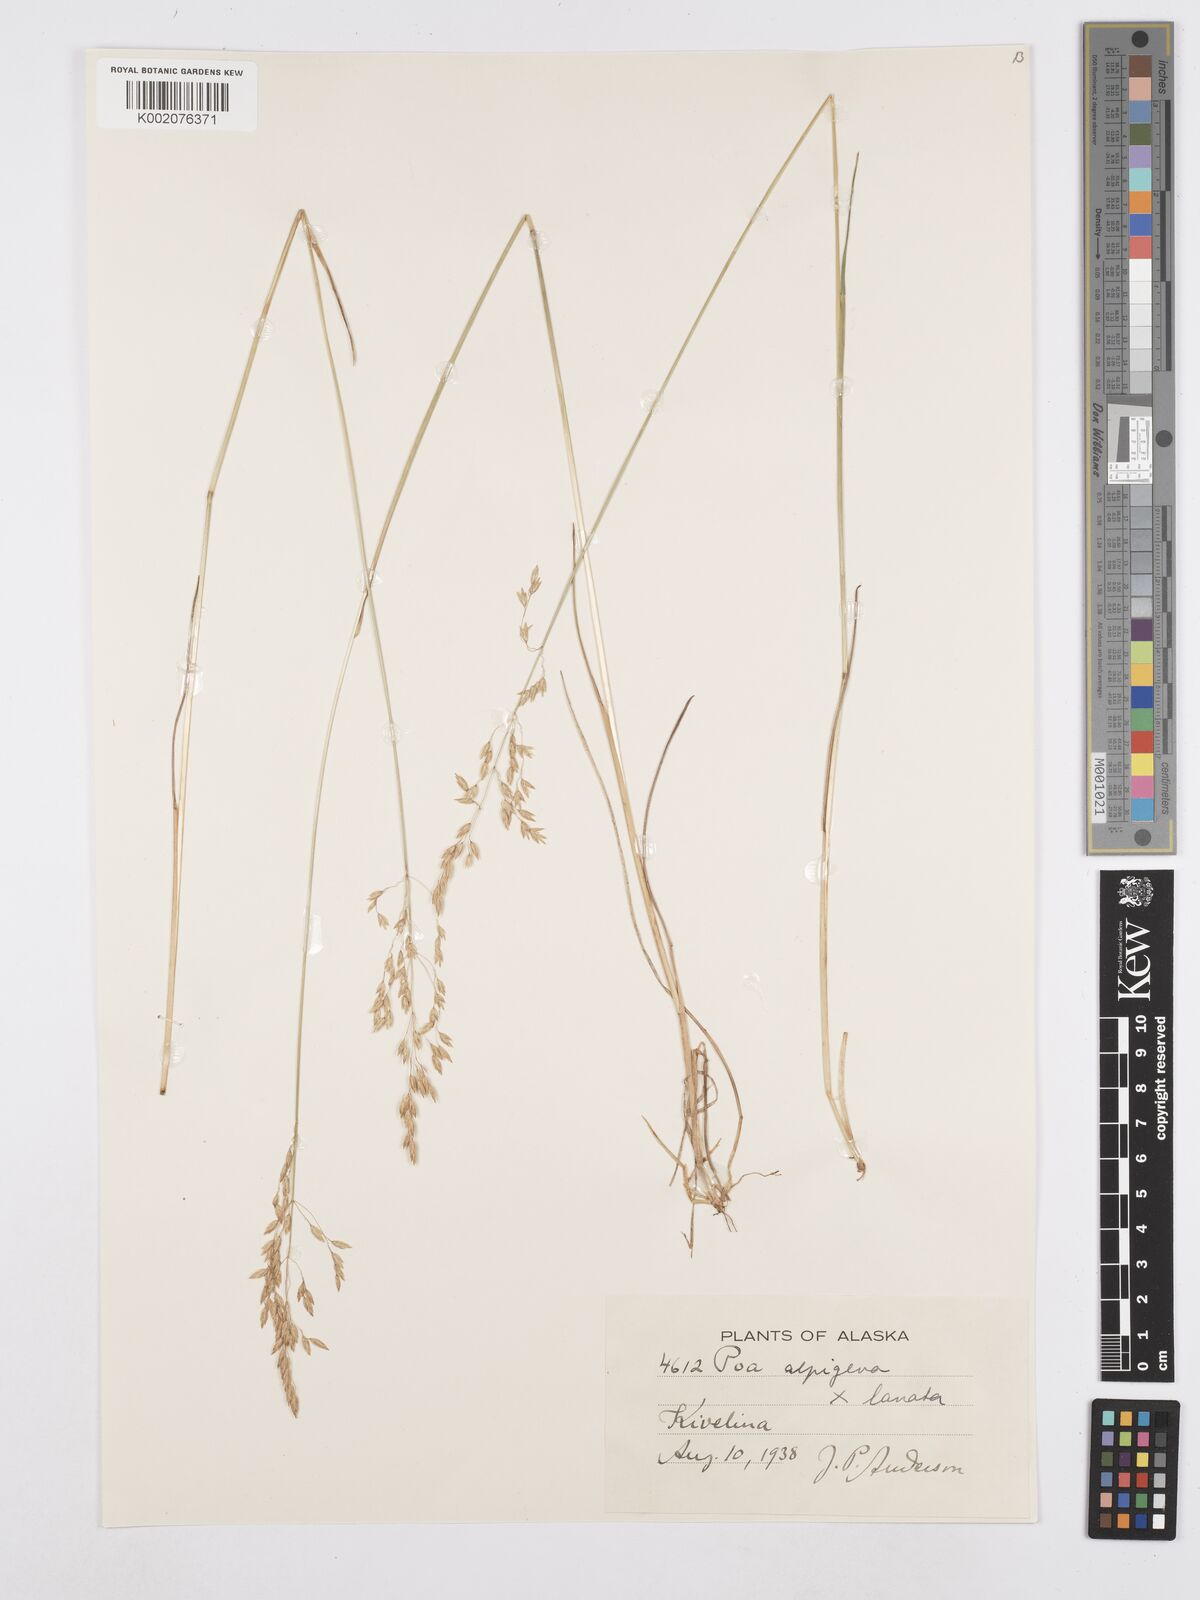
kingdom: Plantae
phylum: Tracheophyta
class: Liliopsida
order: Poales
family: Poaceae
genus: Poa
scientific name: Poa alpigena
